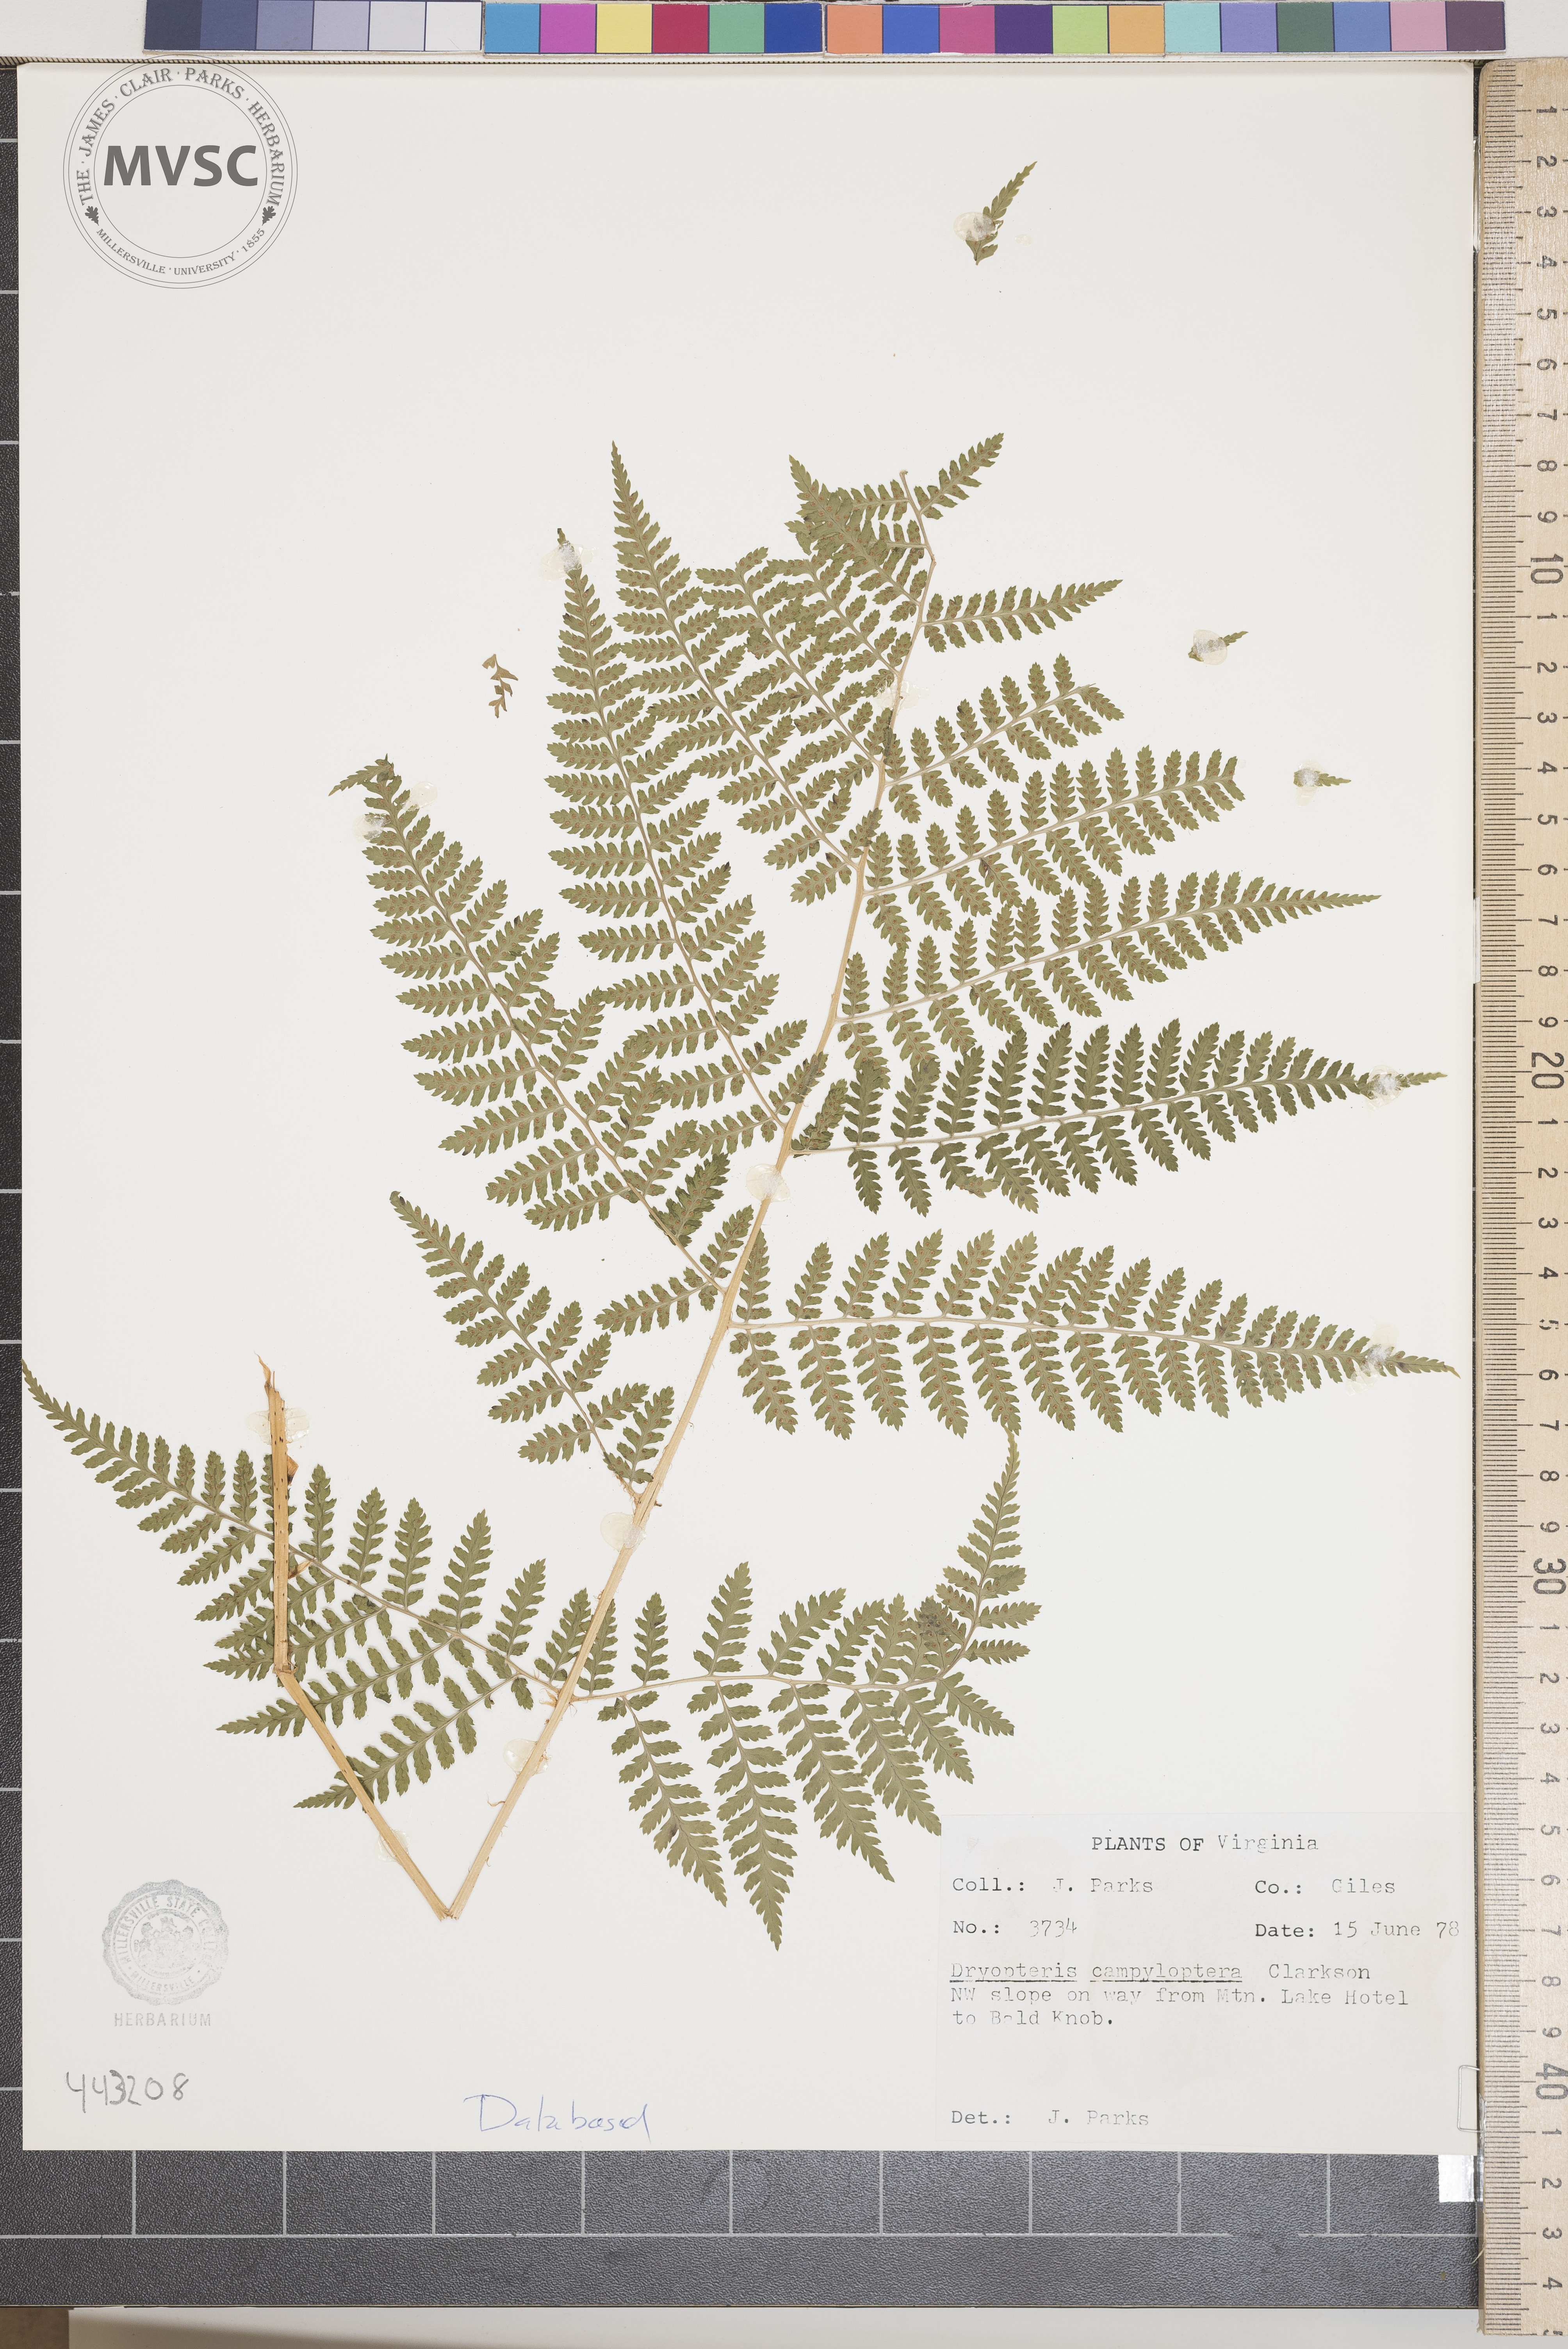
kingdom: Plantae
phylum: Tracheophyta
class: Polypodiopsida
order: Polypodiales
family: Dryopteridaceae
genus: Dryopteris
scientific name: Dryopteris campyloptera
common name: Mountain wood fern
